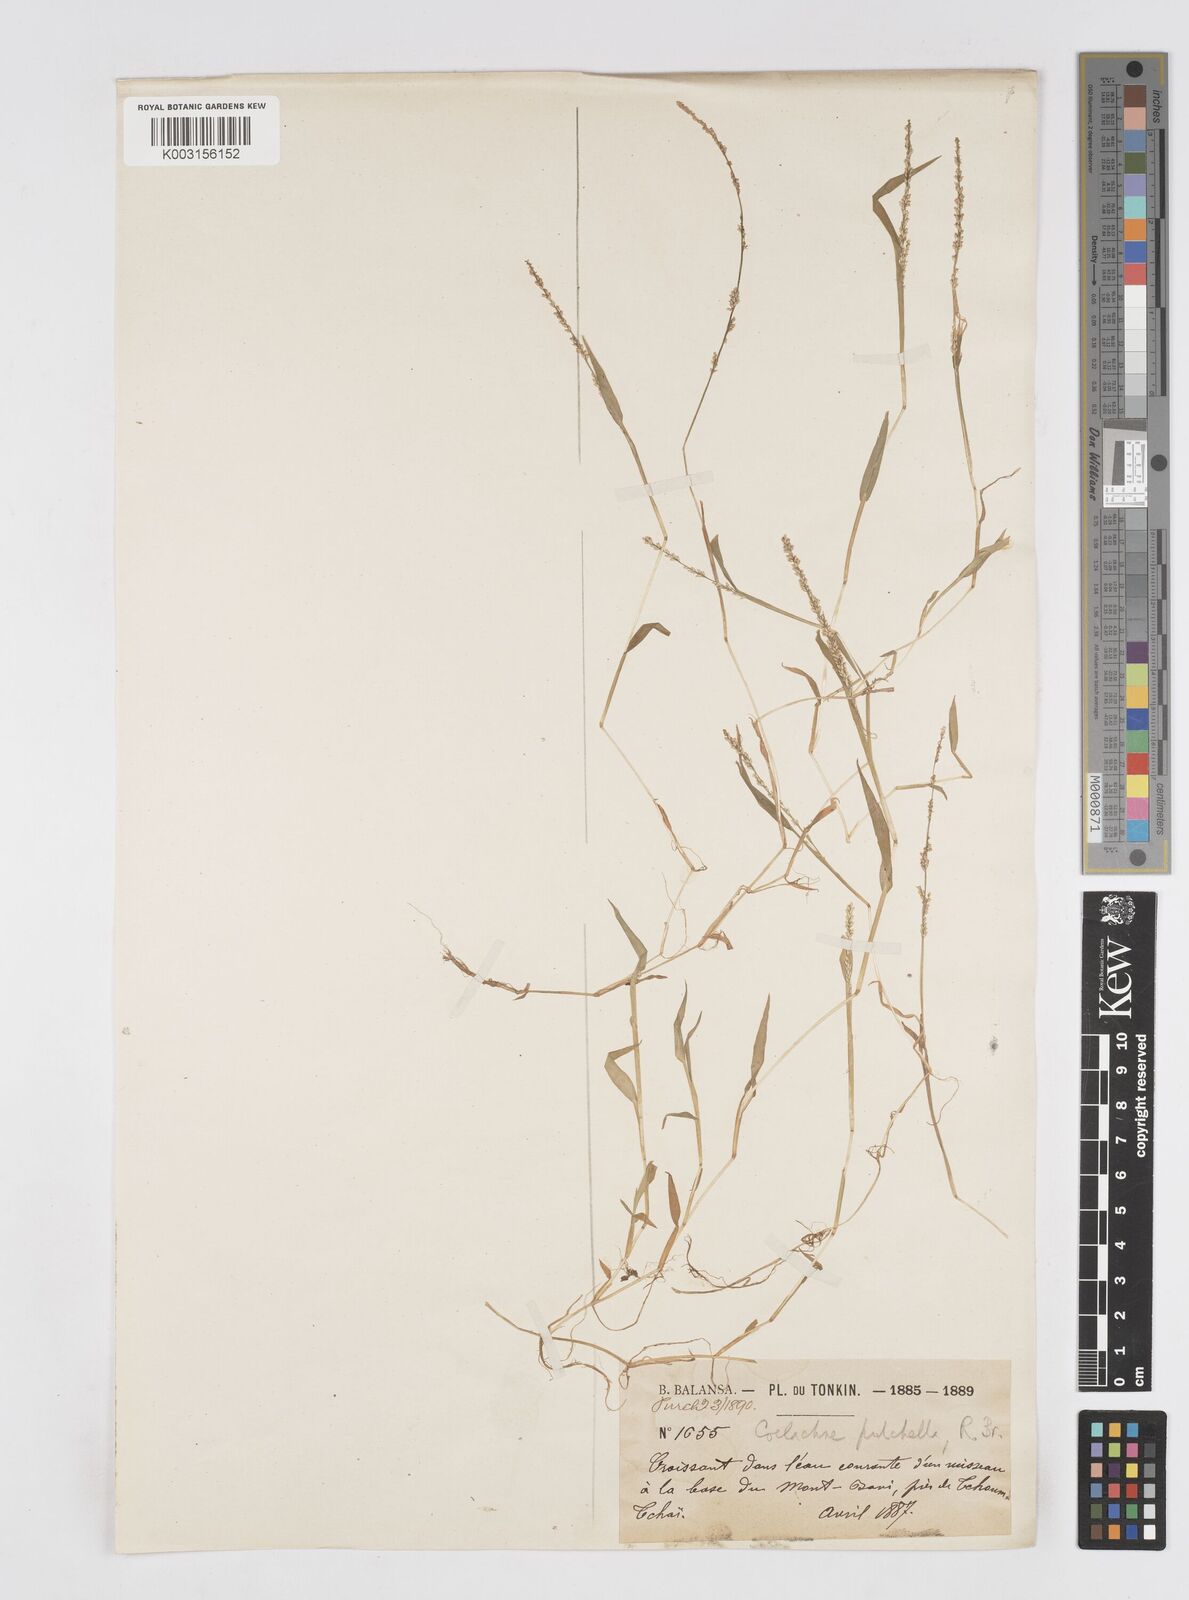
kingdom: Plantae
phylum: Tracheophyta
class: Liliopsida
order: Poales
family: Poaceae
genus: Coelachne
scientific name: Coelachne simpliciuscula
